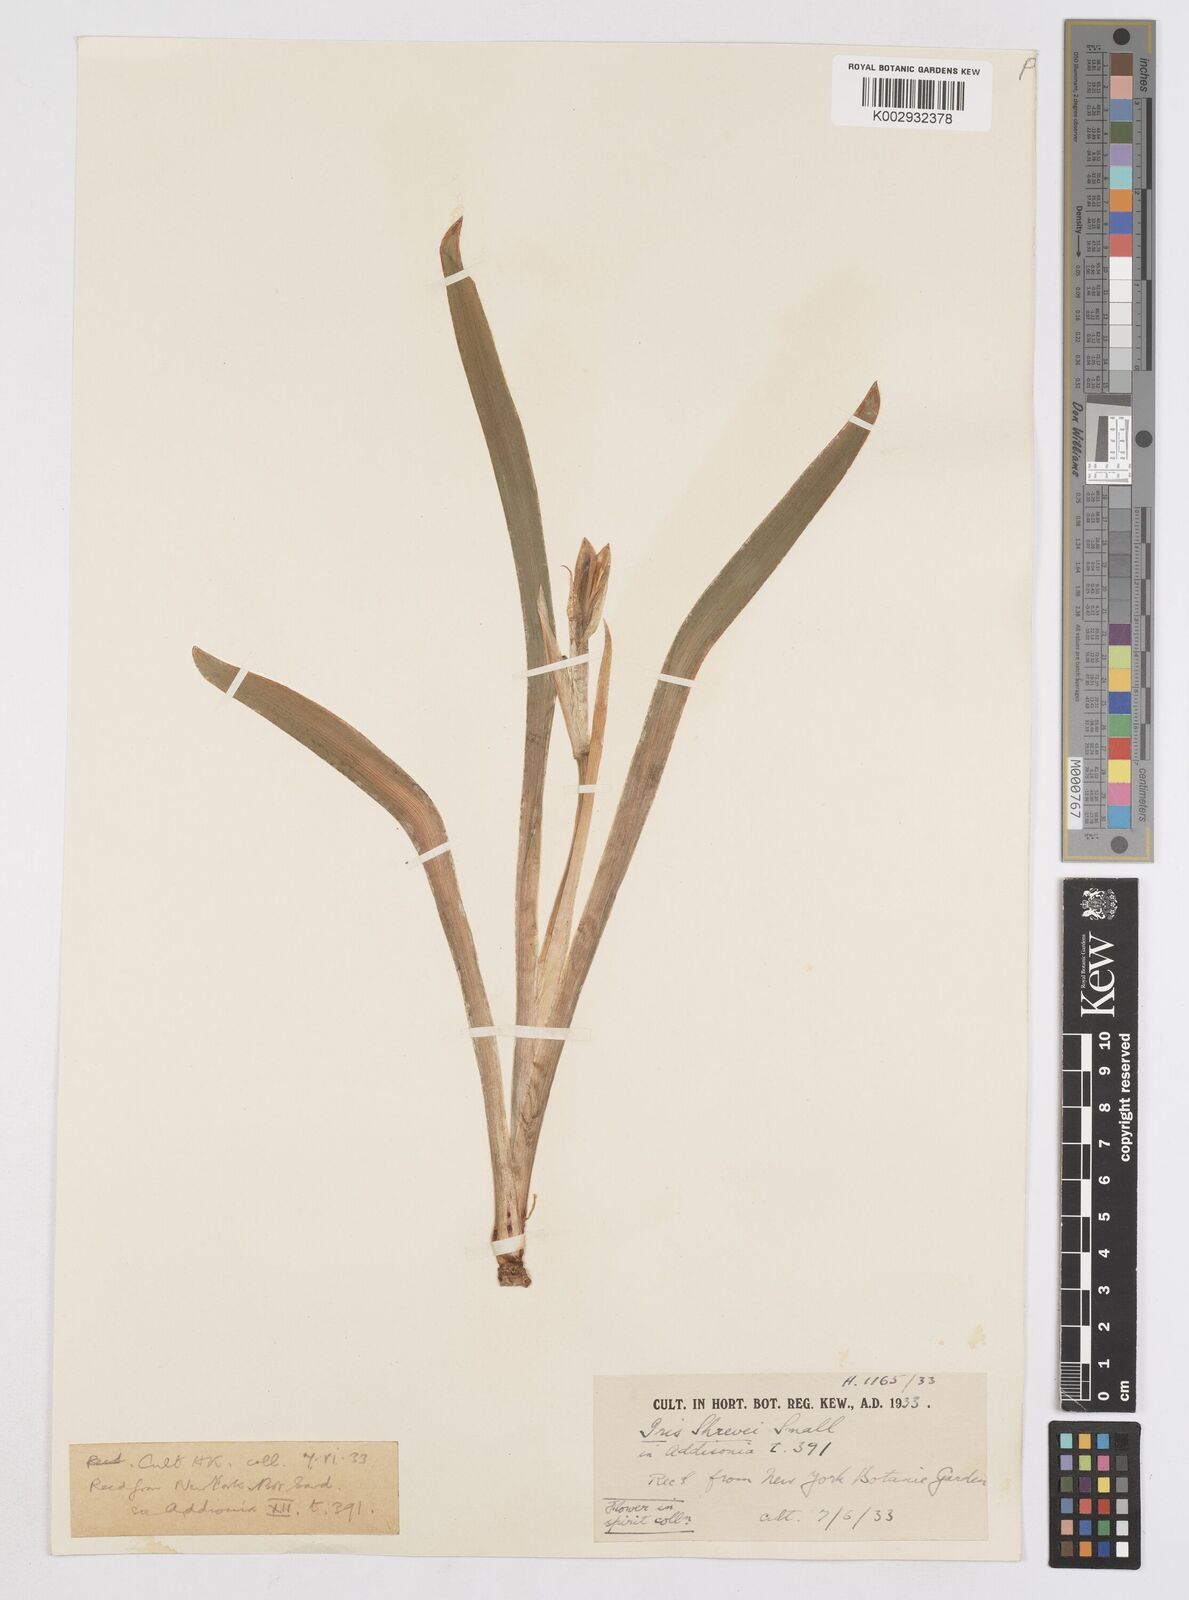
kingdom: Plantae
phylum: Tracheophyta
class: Liliopsida
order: Asparagales
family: Iridaceae
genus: Iris
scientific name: Iris virginica
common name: Southern blue flag
